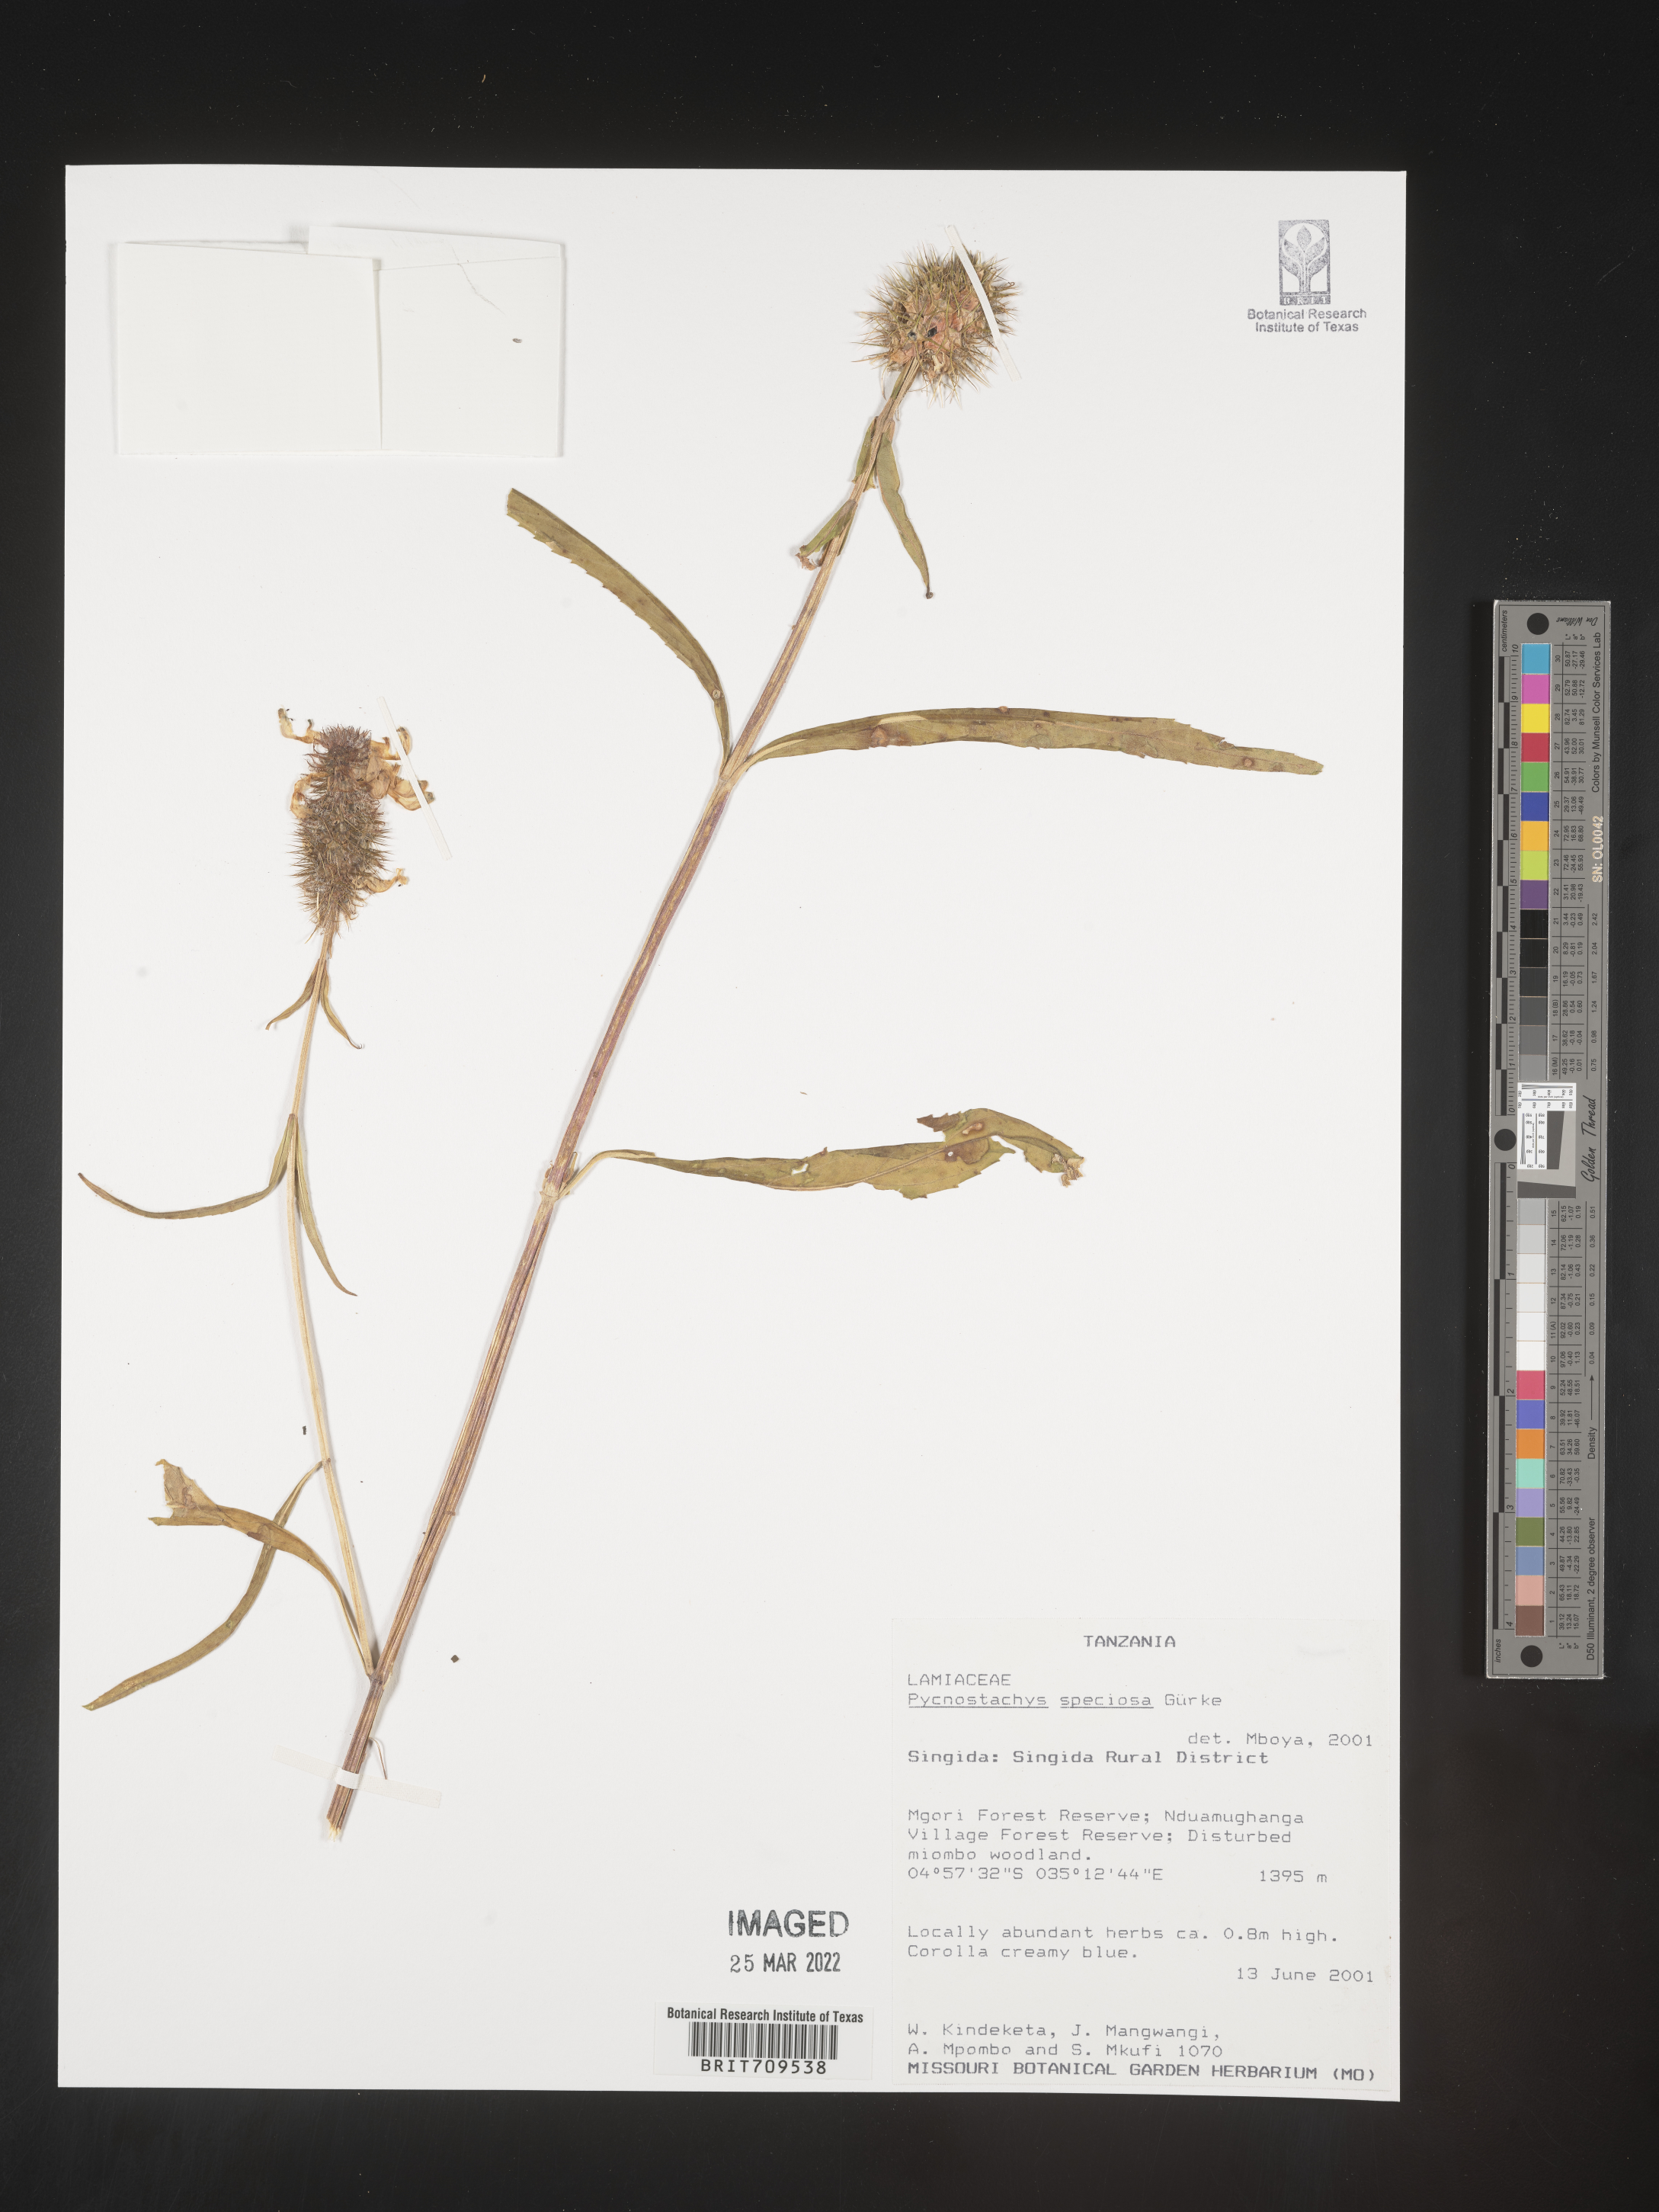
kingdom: Plantae
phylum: Tracheophyta
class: Magnoliopsida
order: Lamiales
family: Lamiaceae
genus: Coleus
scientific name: Coleus
